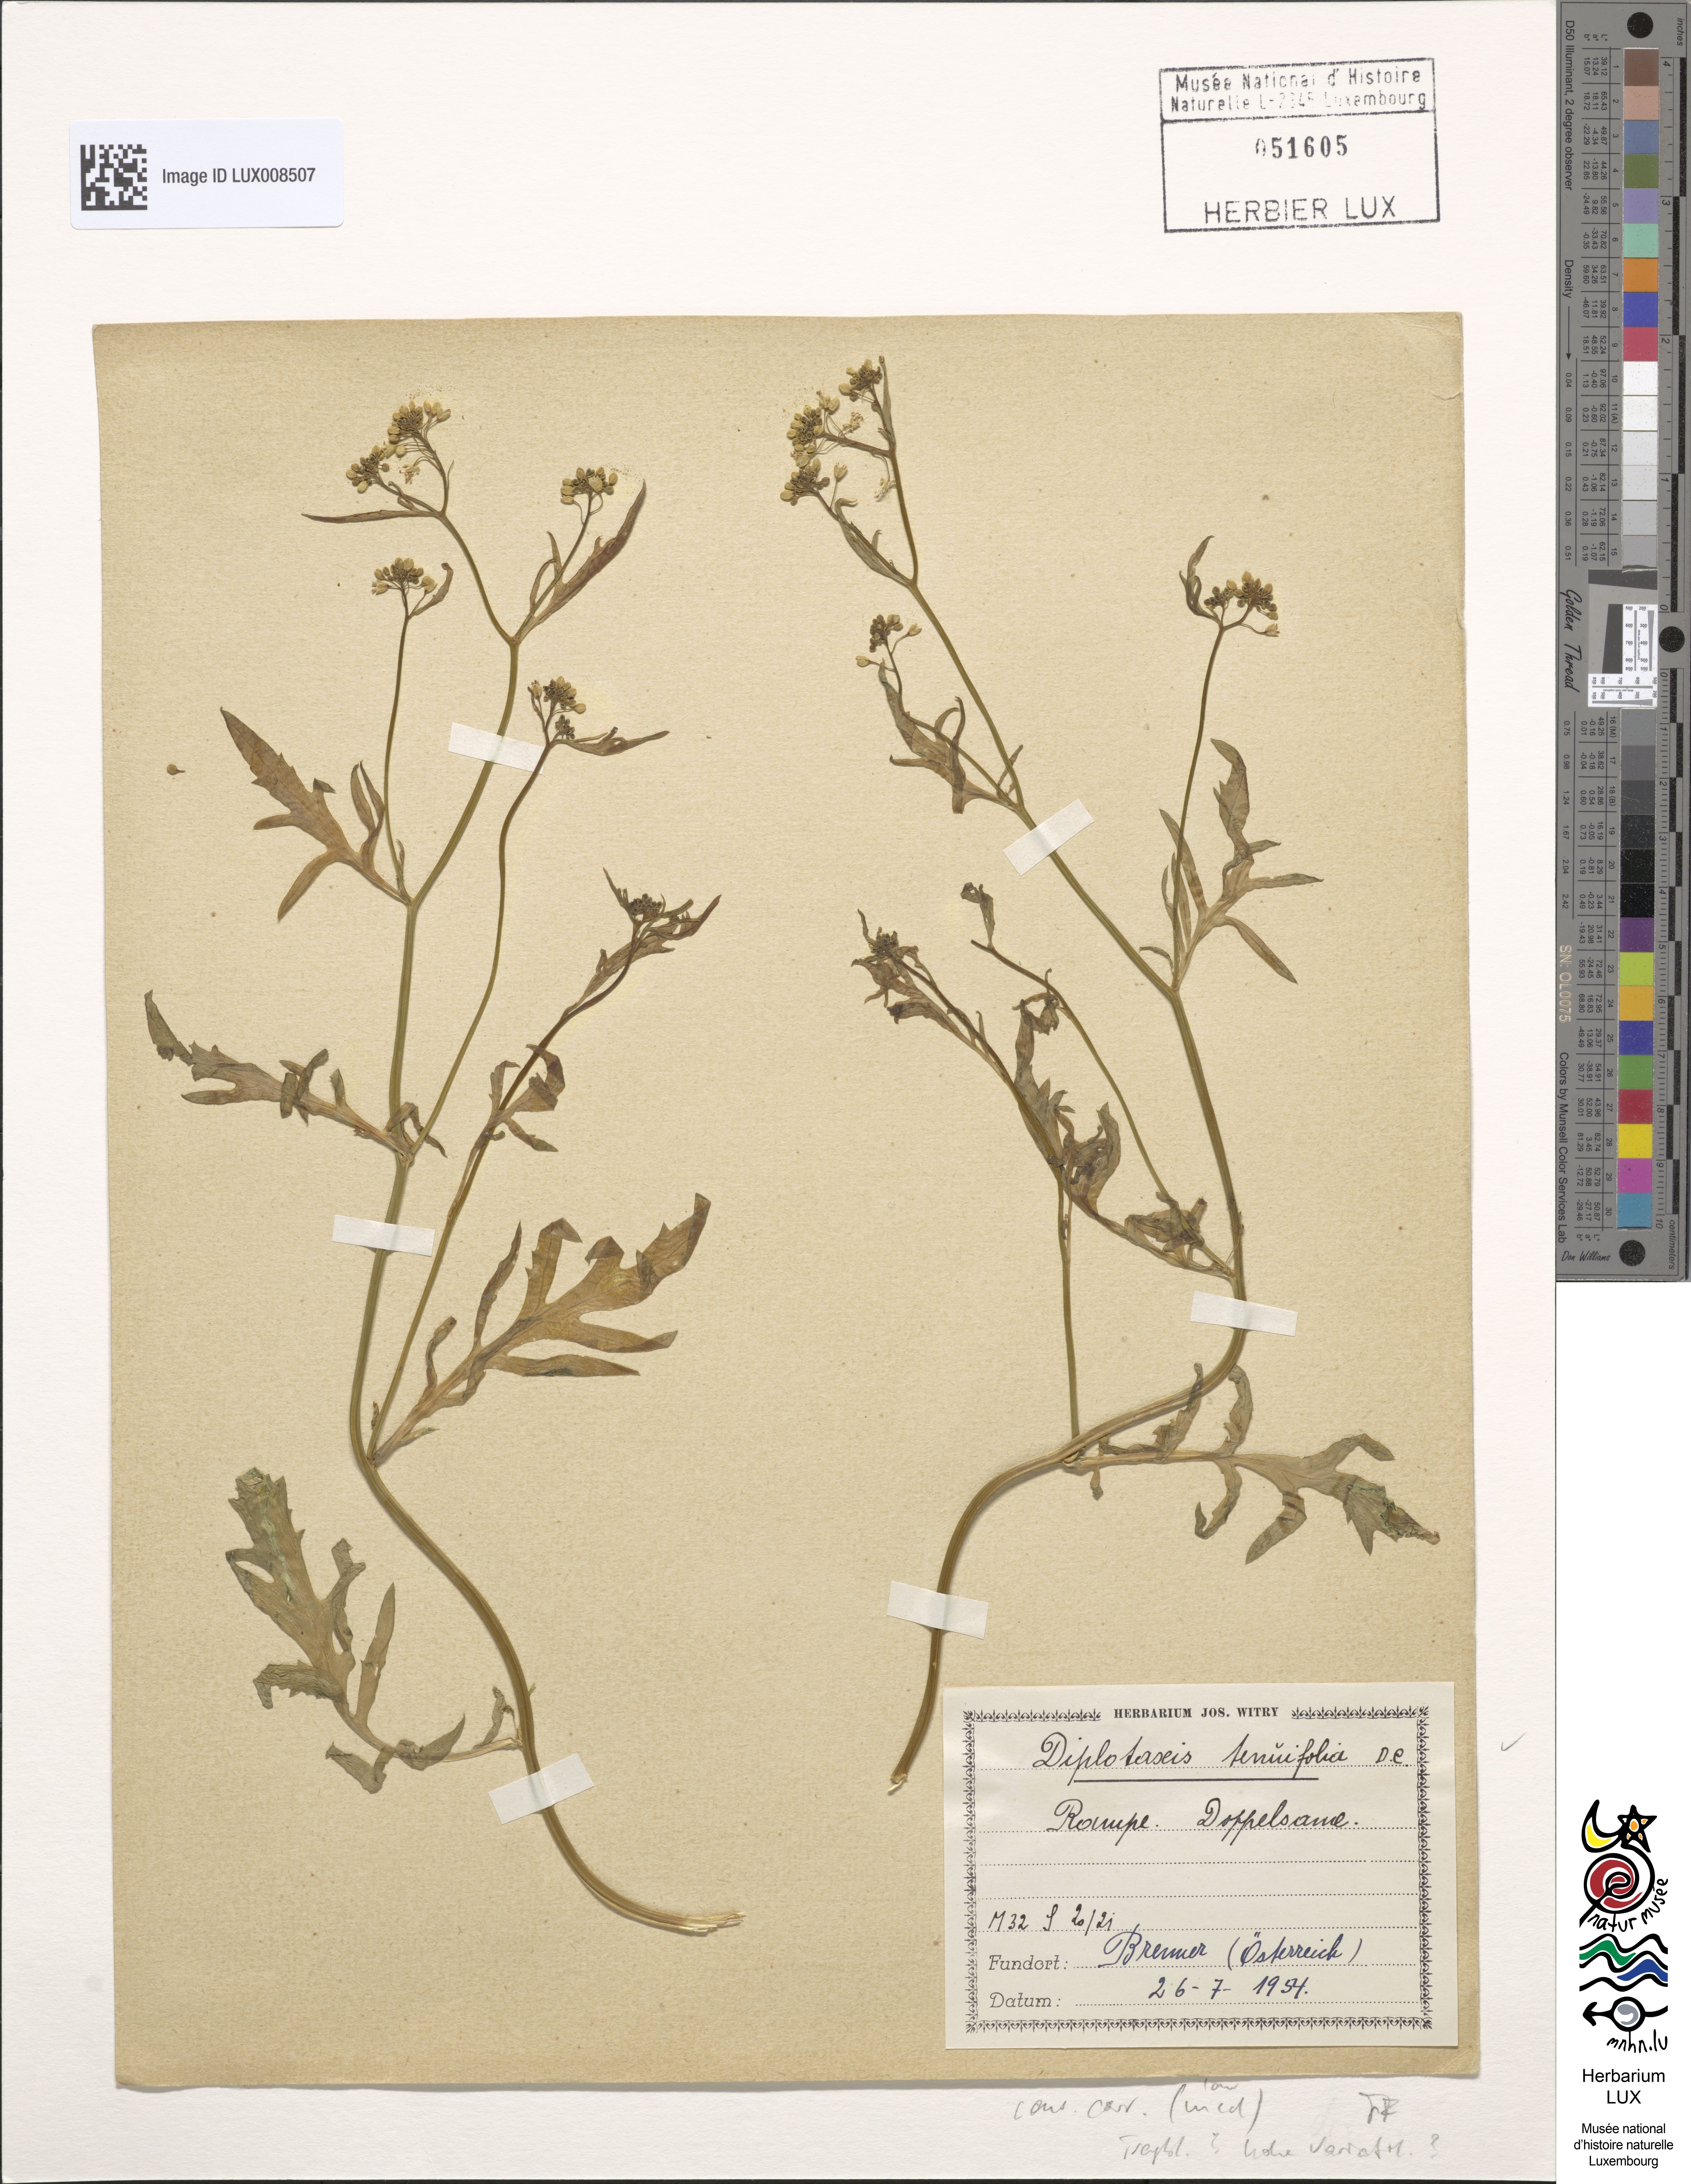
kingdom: Plantae
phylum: Tracheophyta
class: Magnoliopsida
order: Brassicales
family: Brassicaceae
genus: Diplotaxis
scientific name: Diplotaxis tenuifolia
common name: Perennial wall-rocket
